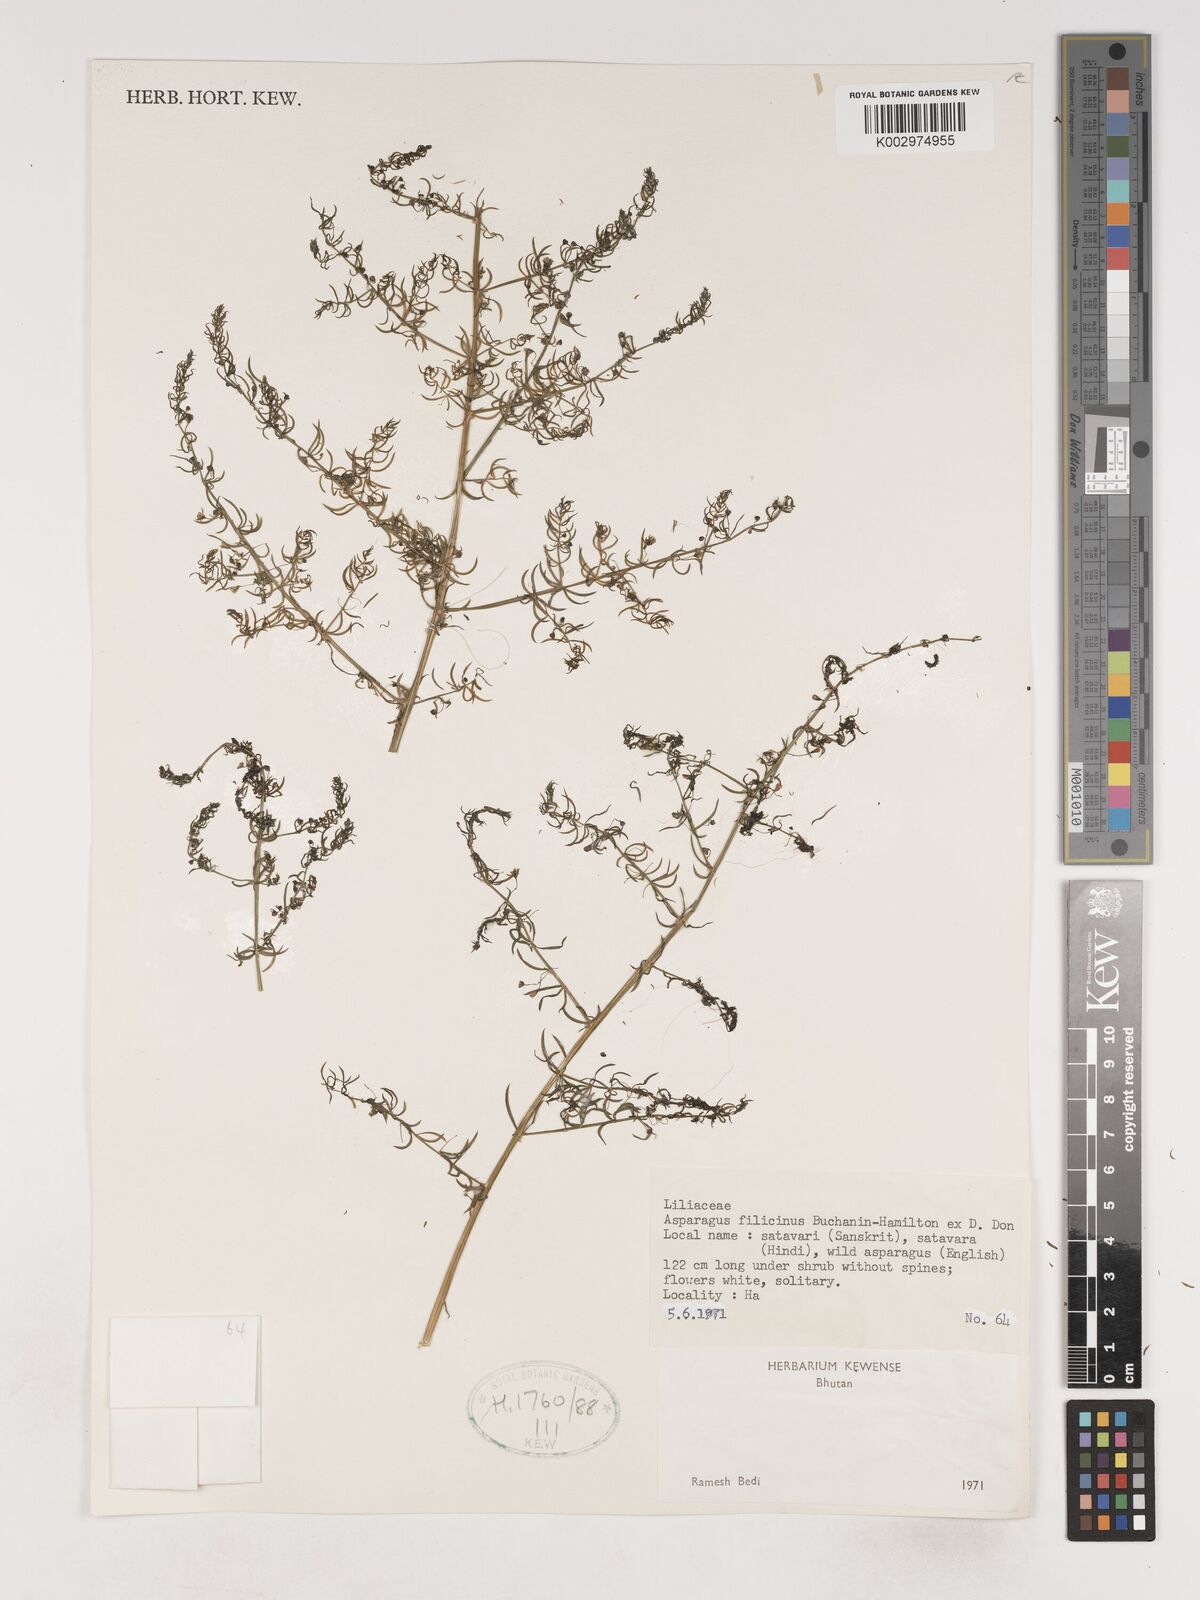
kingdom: Plantae
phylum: Tracheophyta
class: Liliopsida
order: Asparagales
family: Asparagaceae
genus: Asparagus
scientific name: Asparagus filicinus
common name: Fern asparagus
